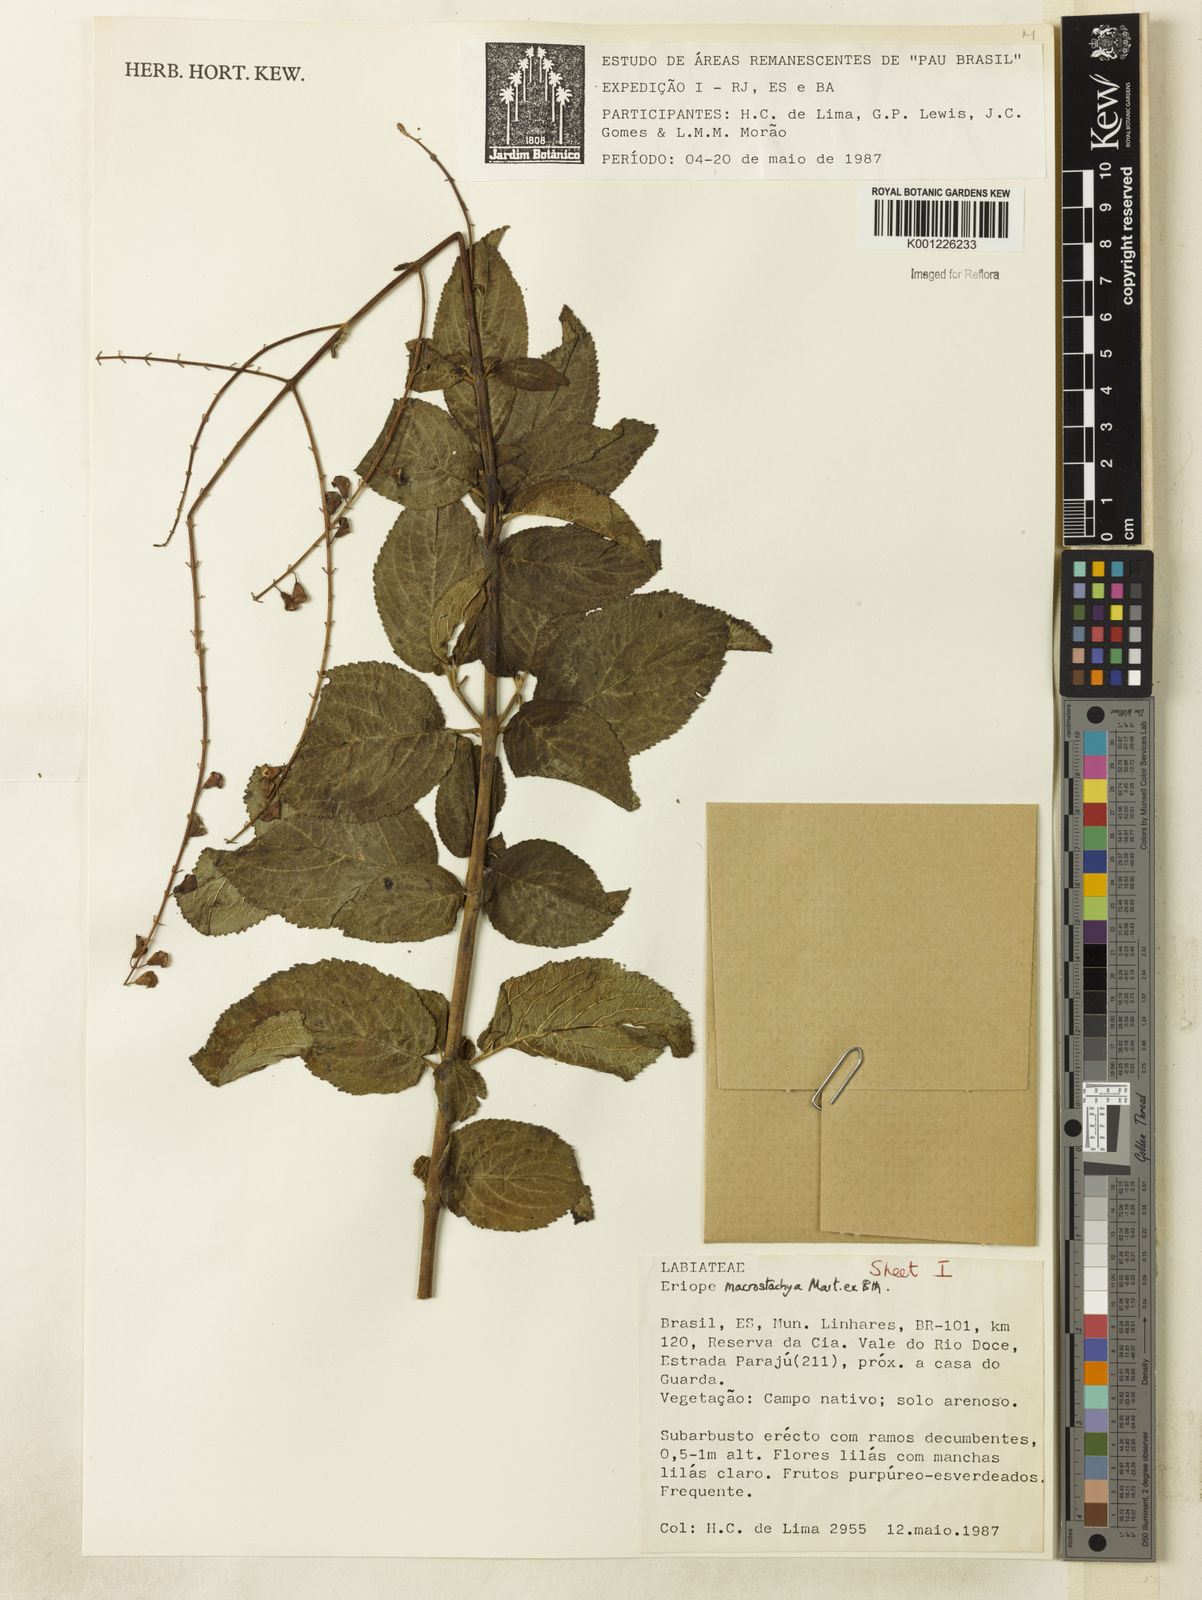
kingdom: Plantae
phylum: Tracheophyta
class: Magnoliopsida
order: Lamiales
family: Lamiaceae
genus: Eriope
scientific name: Eriope macrostachya
